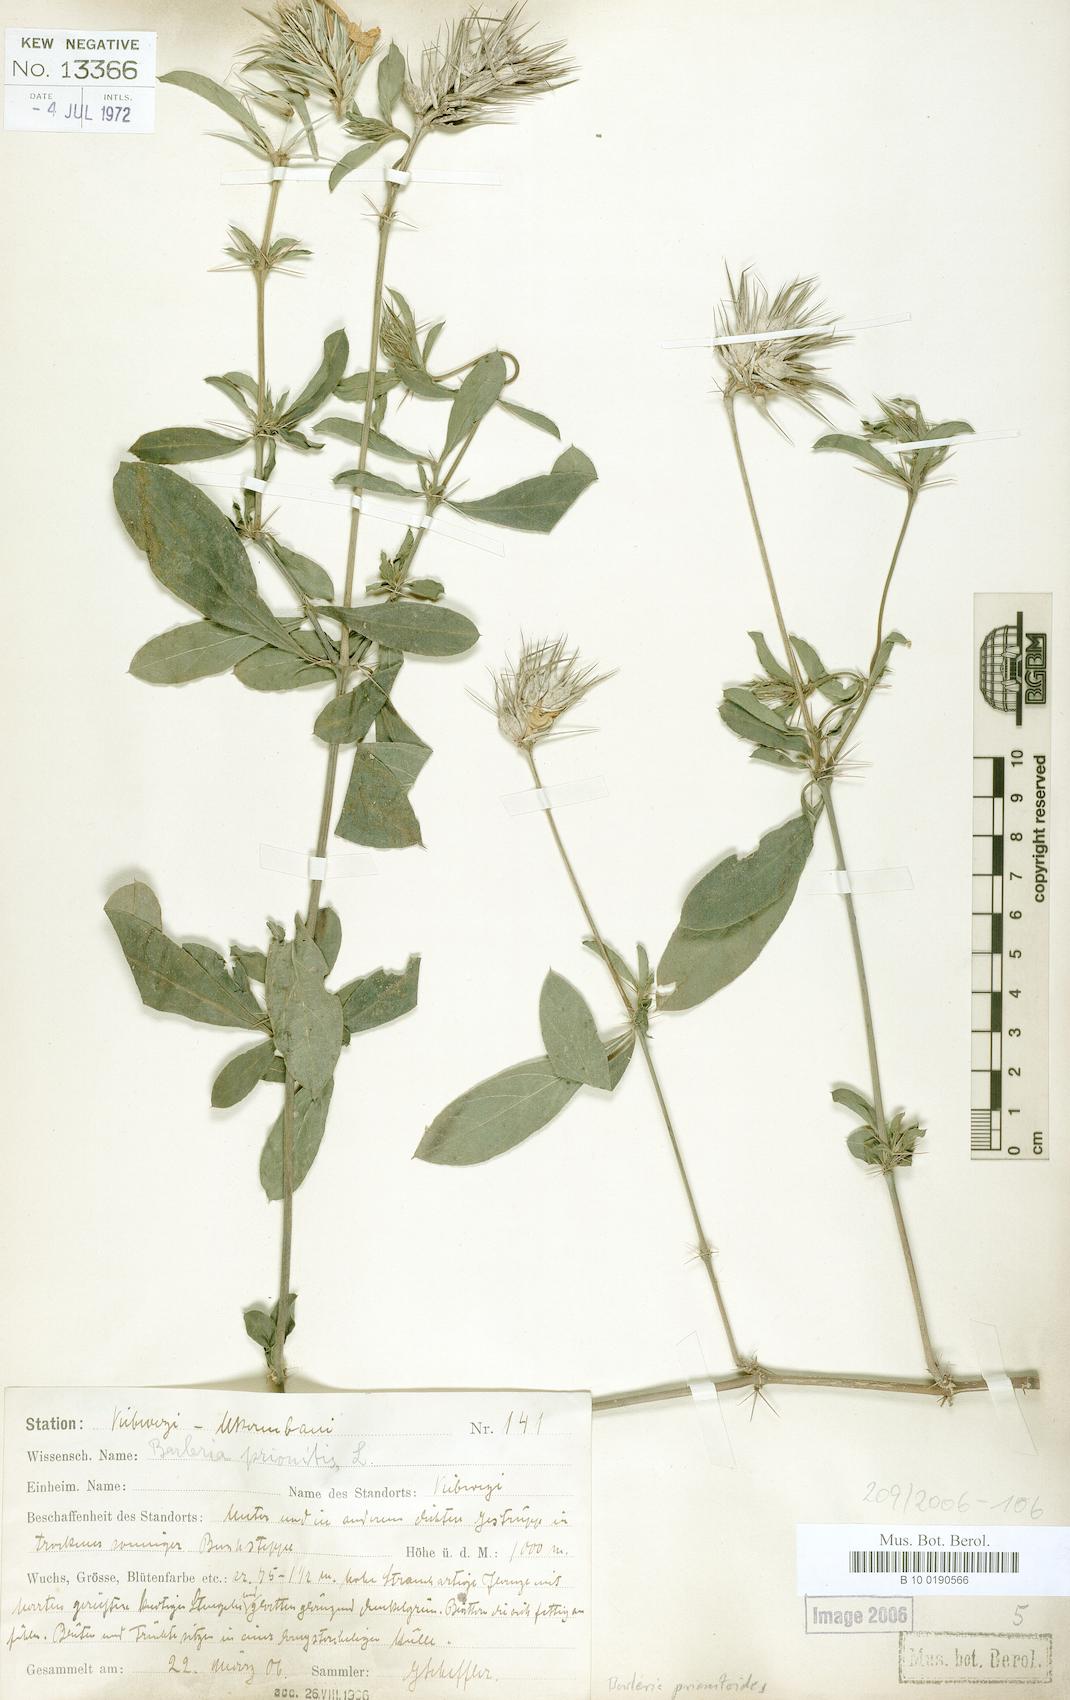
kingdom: Plantae
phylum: Tracheophyta
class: Magnoliopsida
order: Lamiales
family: Acanthaceae
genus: Barleria
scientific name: Barleria prionitis
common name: Barleria
